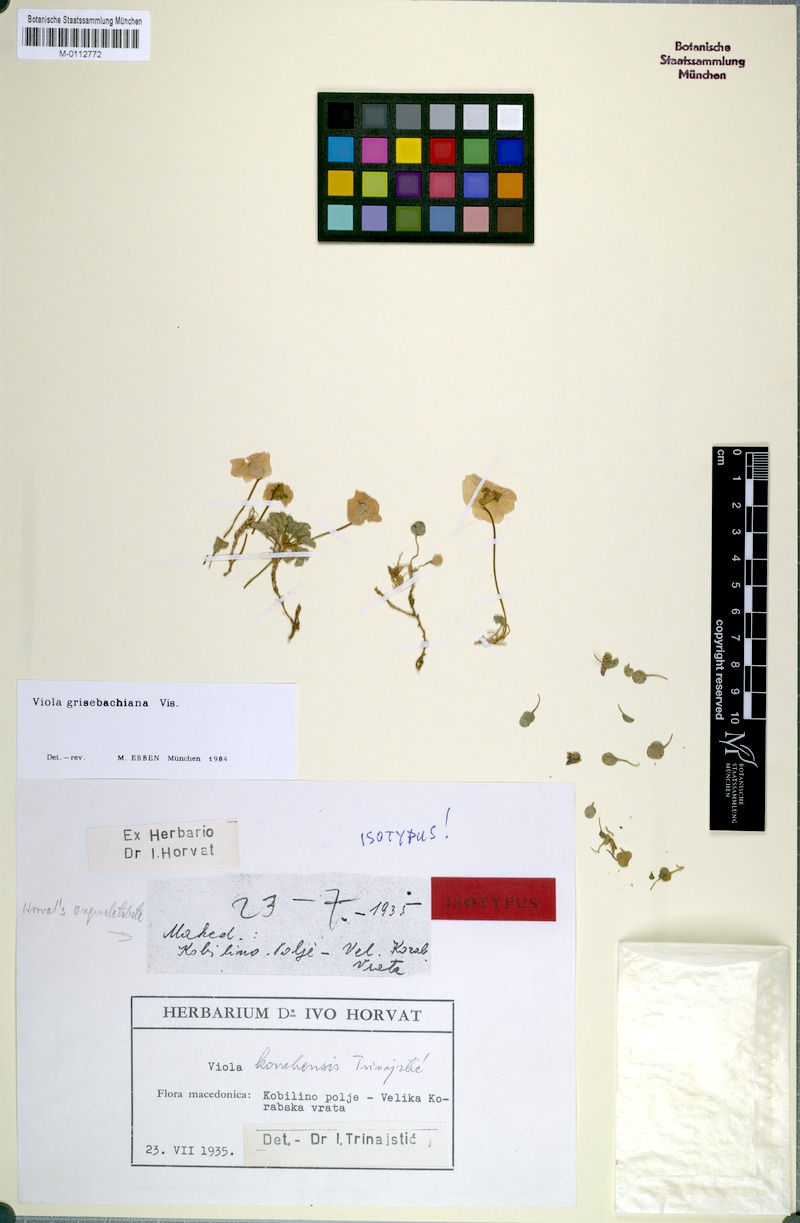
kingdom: Plantae
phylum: Tracheophyta
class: Magnoliopsida
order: Malpighiales
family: Violaceae
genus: Viola
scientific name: Viola grisebachiana
